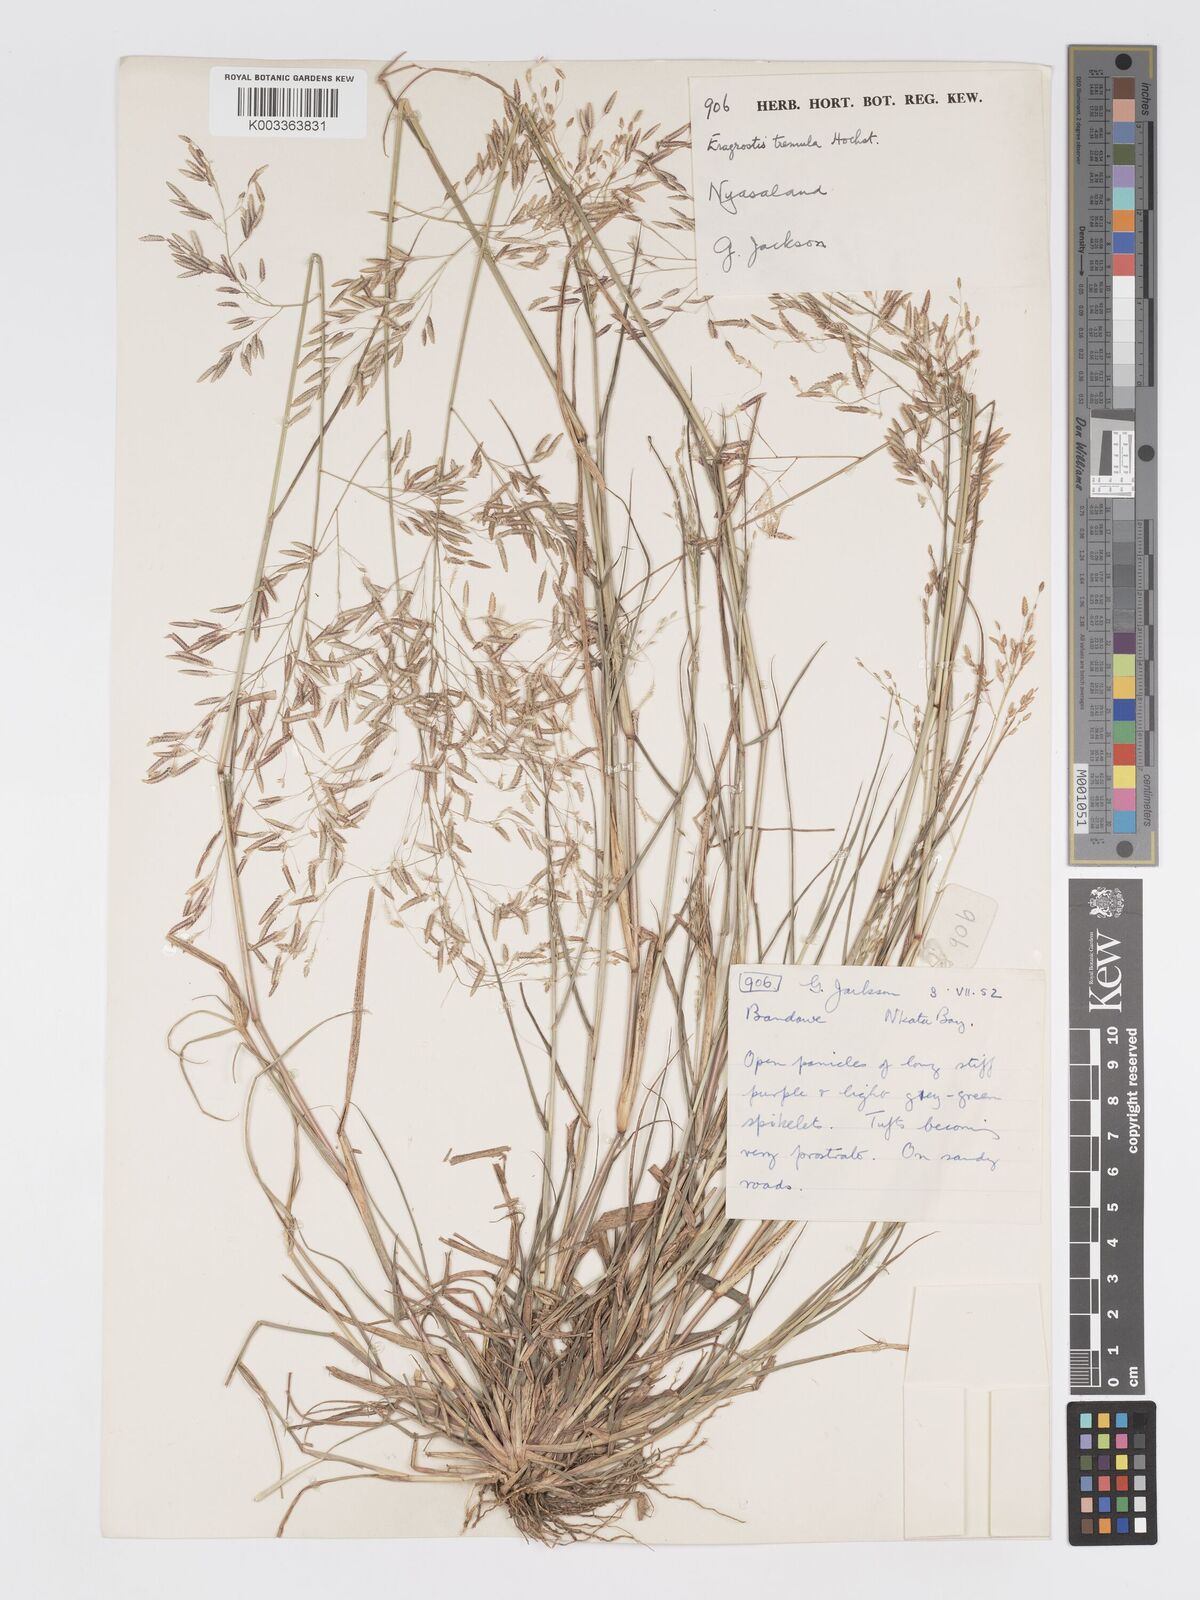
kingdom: Plantae
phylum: Tracheophyta
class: Liliopsida
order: Poales
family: Poaceae
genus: Eragrostis
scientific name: Eragrostis tremula
